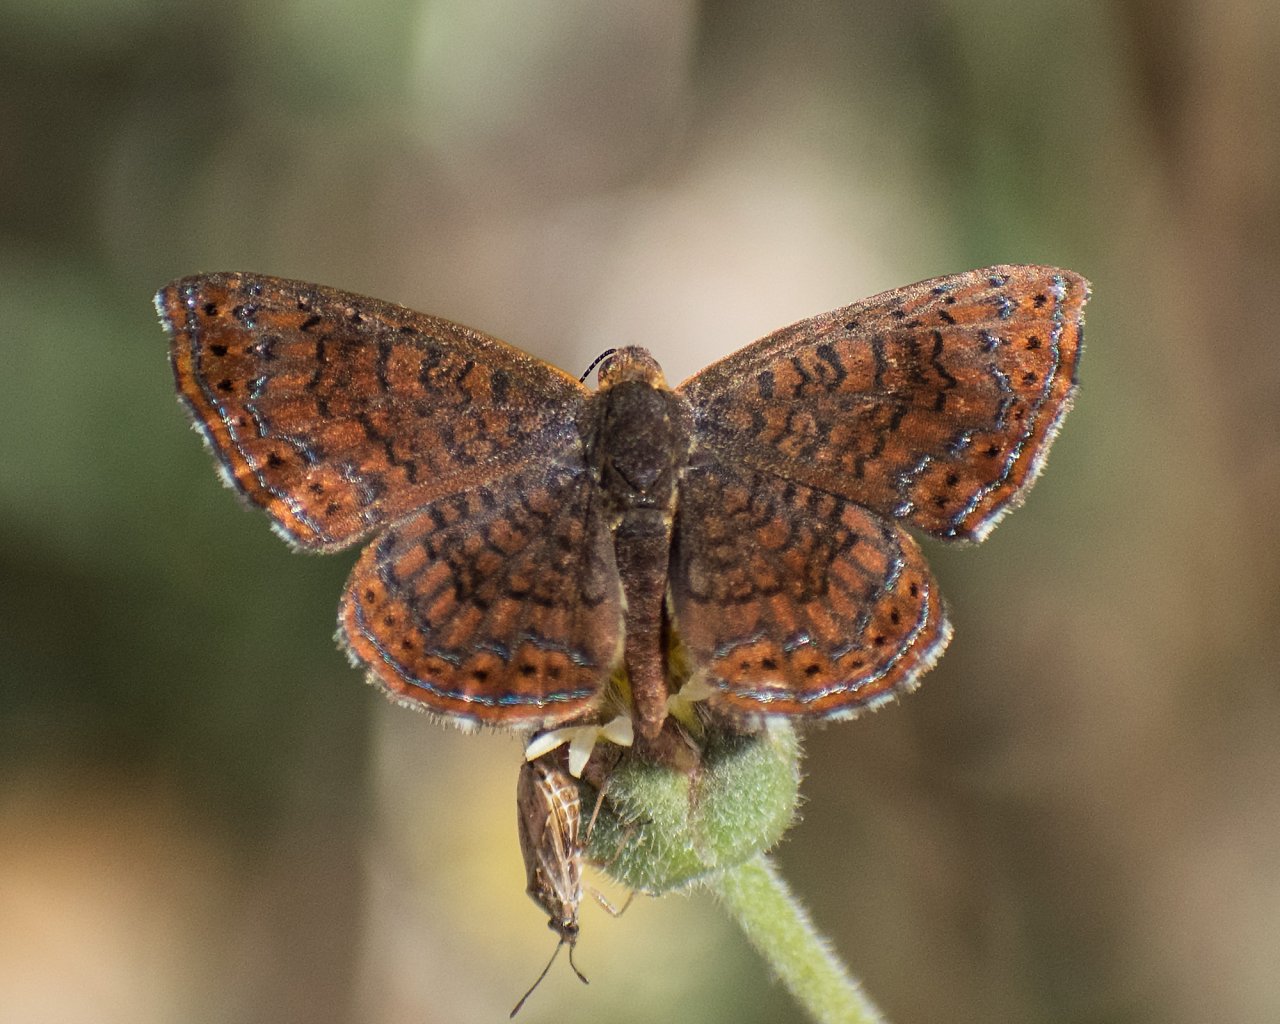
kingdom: Animalia
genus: Calephelis
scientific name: Calephelis sinaloensis
